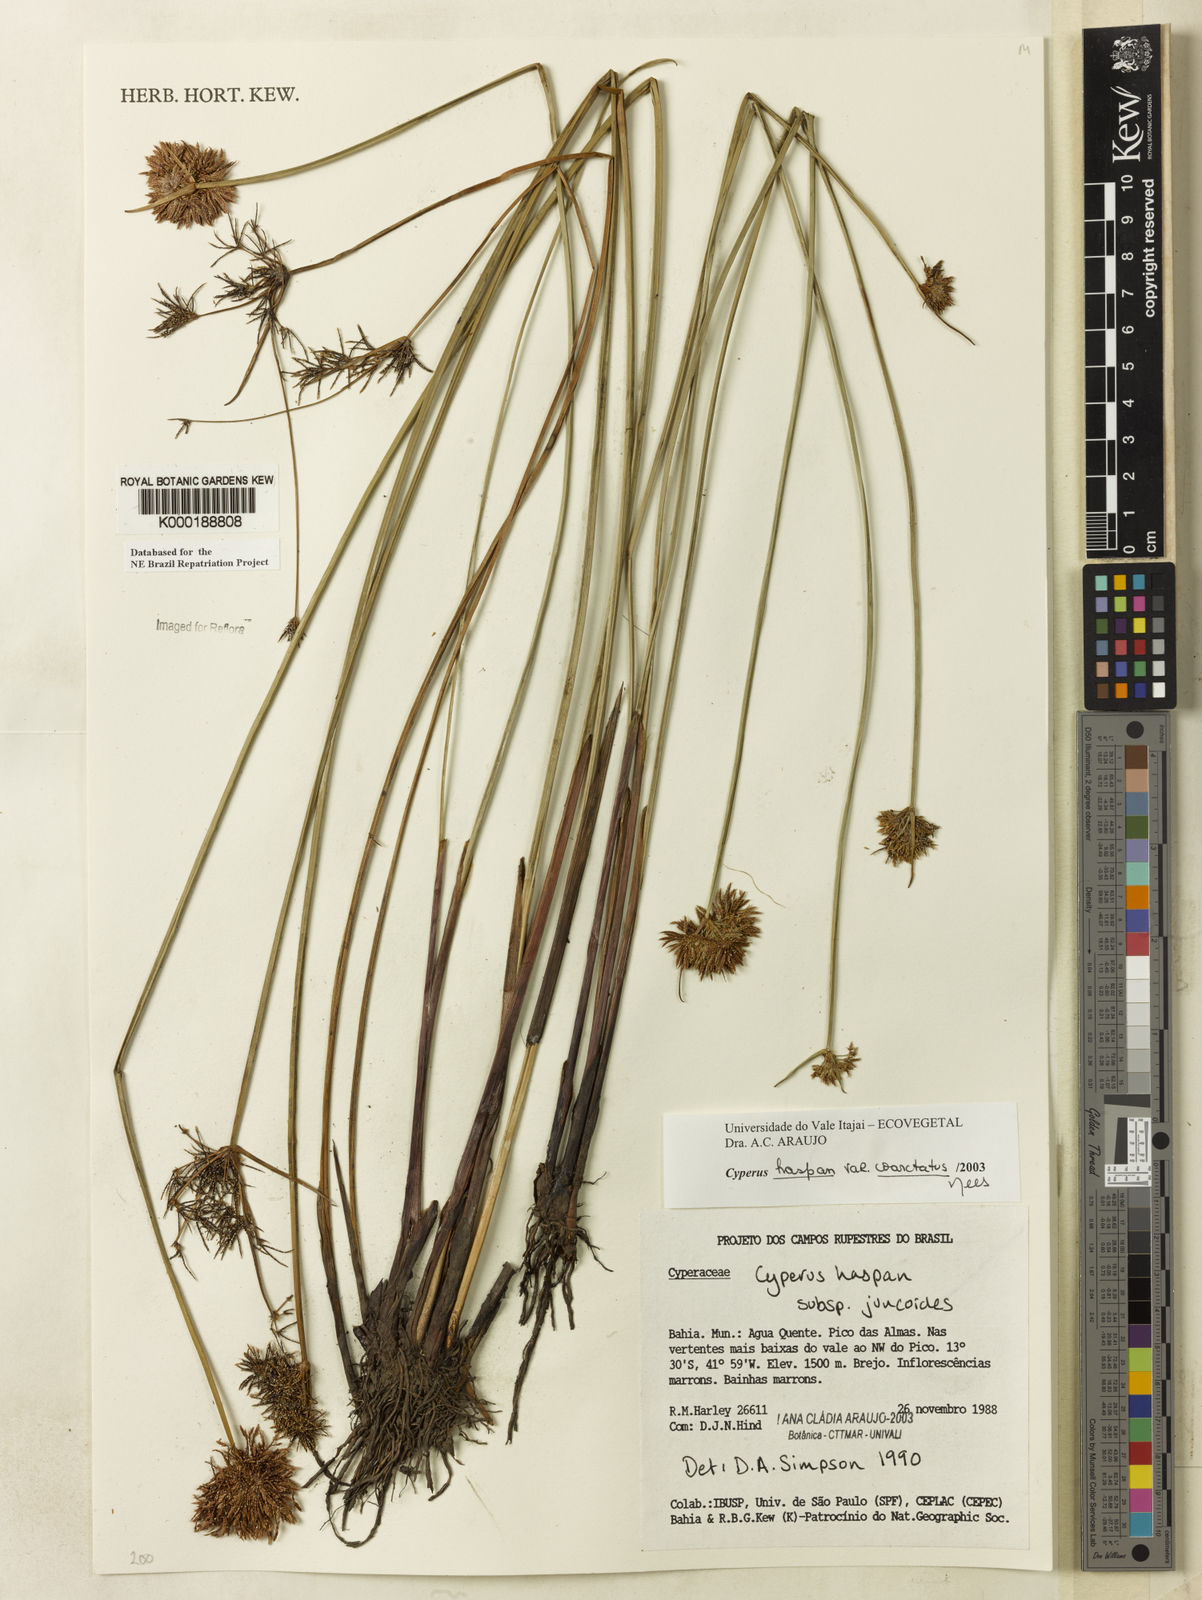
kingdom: Plantae
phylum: Tracheophyta
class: Liliopsida
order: Poales
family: Cyperaceae
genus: Cyperus
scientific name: Cyperus haspan
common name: Haspan flatsedge
